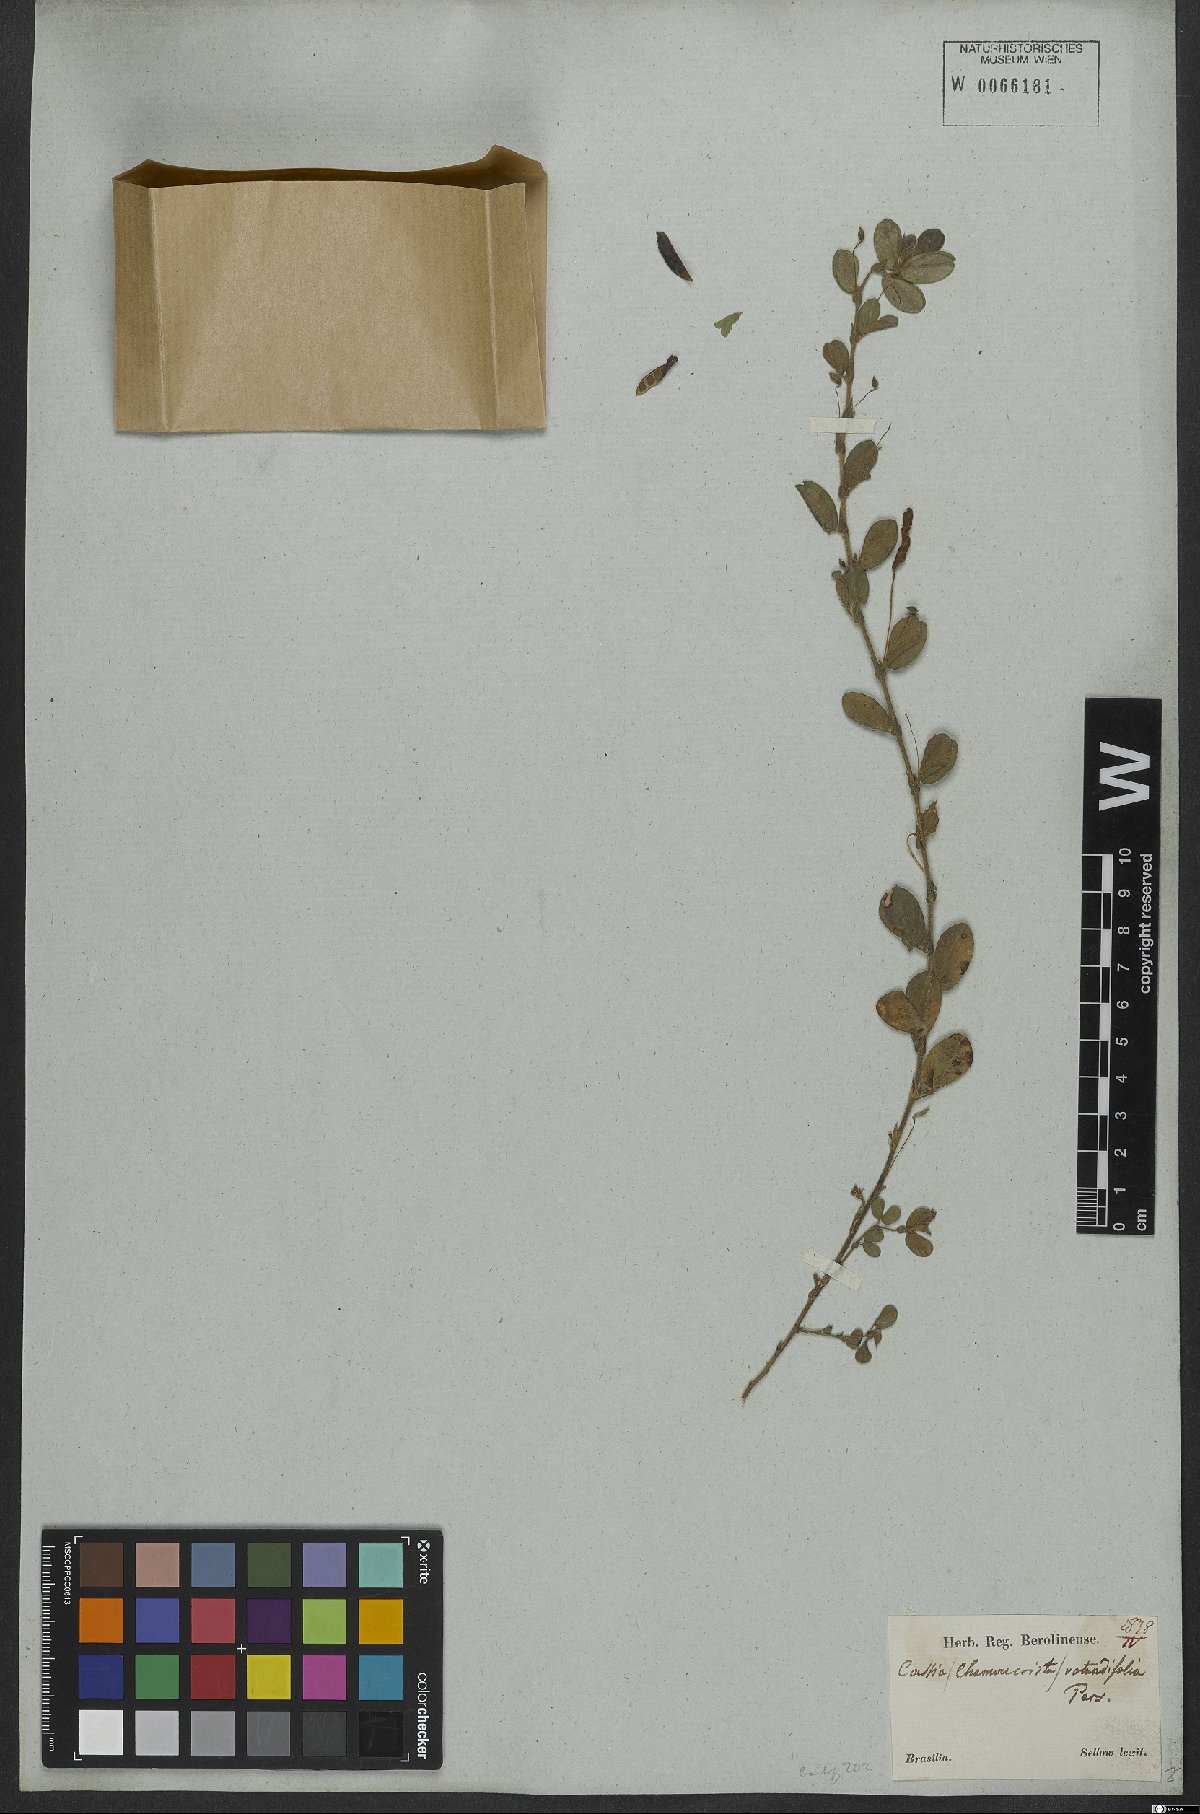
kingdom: Plantae
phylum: Tracheophyta
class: Magnoliopsida
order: Fabales
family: Fabaceae
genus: Chamaecrista
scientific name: Chamaecrista rotundifolia
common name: Round-leaf cassia
